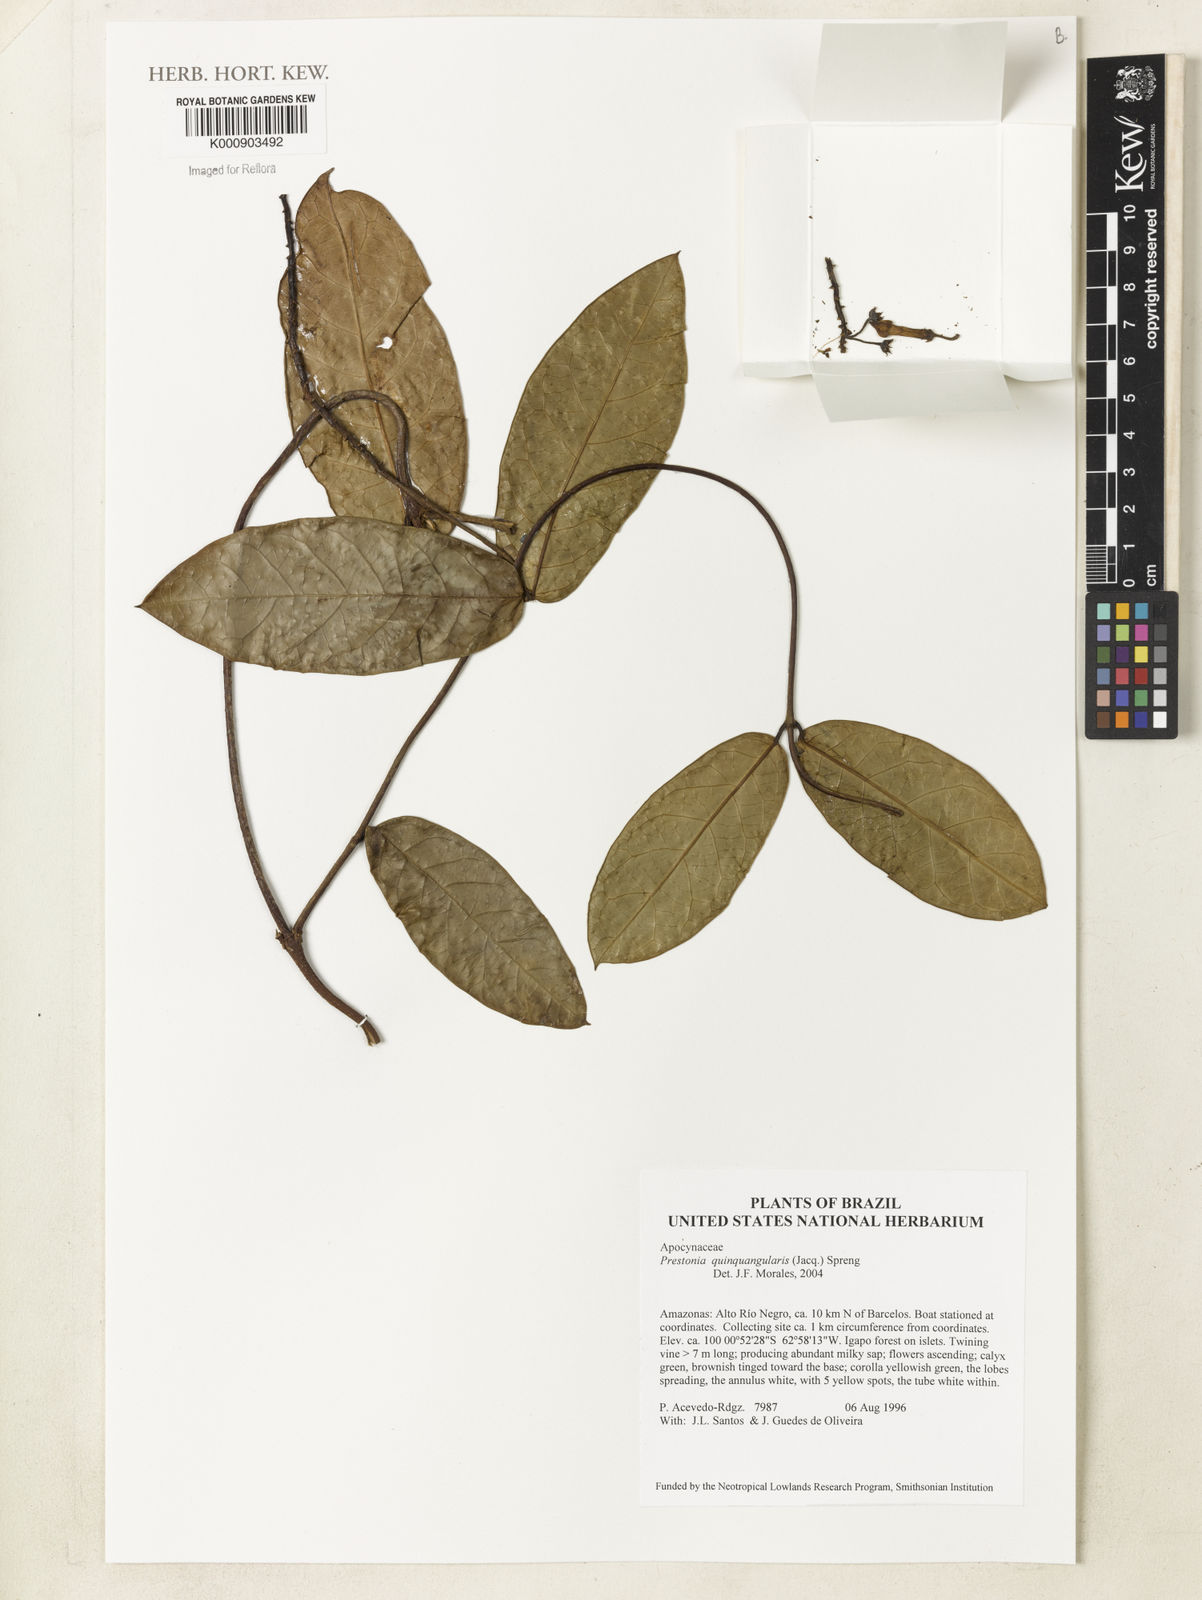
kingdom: Plantae
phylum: Tracheophyta
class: Magnoliopsida
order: Gentianales
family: Apocynaceae
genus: Prestonia
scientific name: Prestonia quinquangularis
